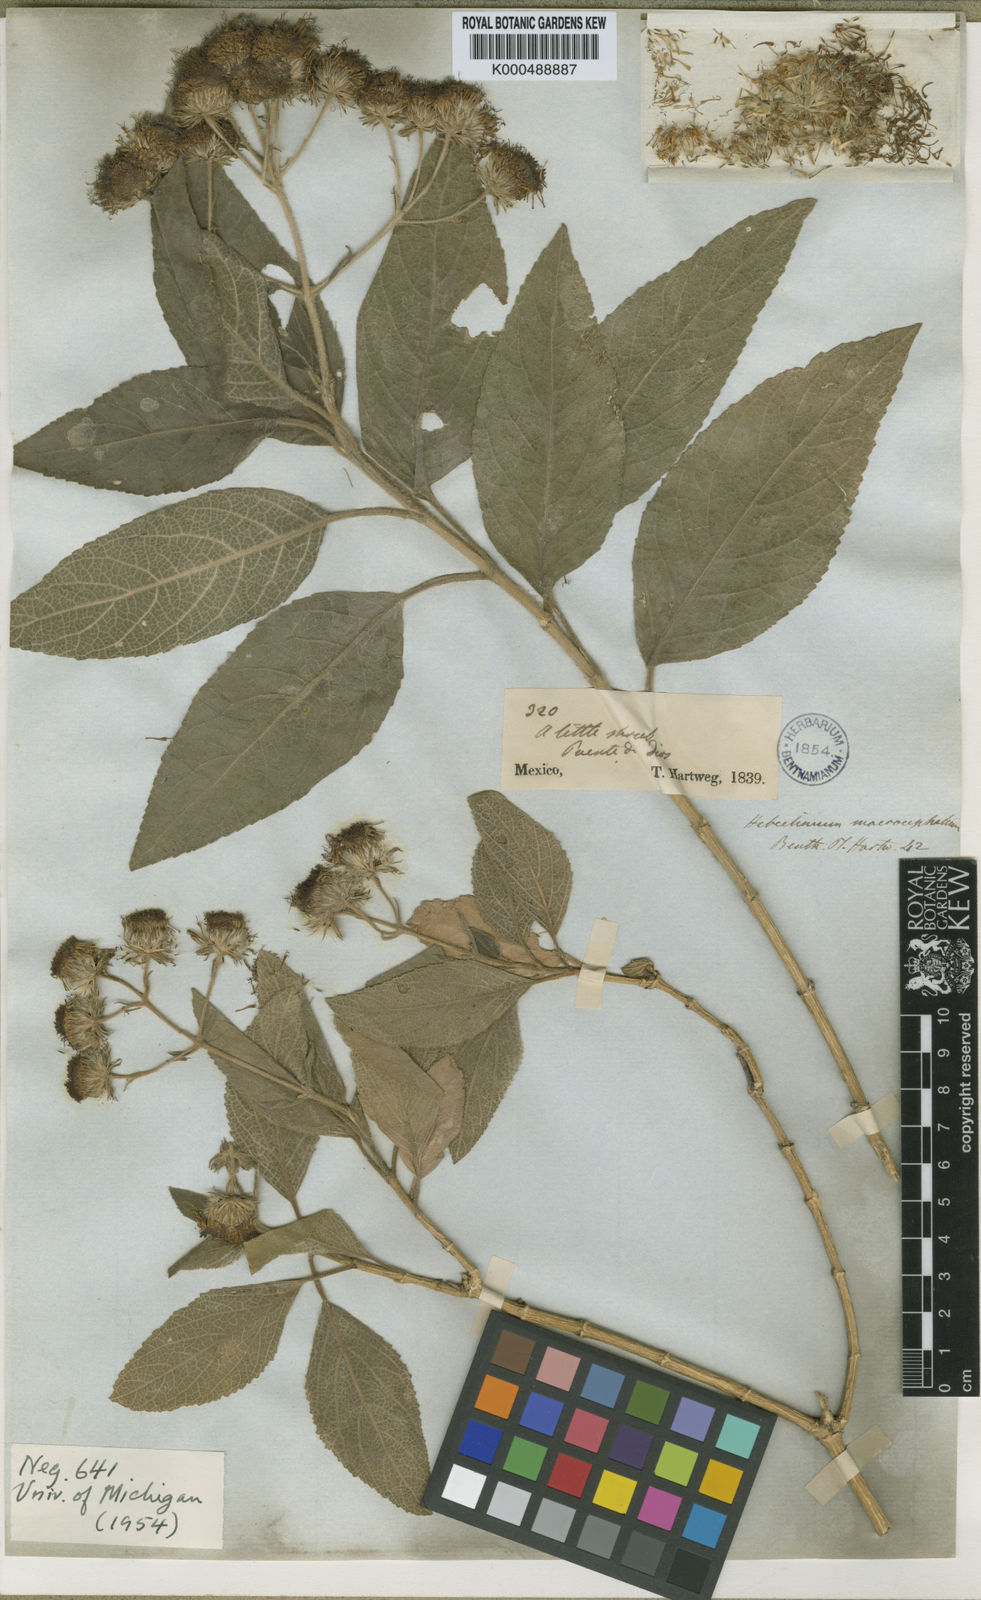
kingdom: Plantae
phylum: Tracheophyta
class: Magnoliopsida
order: Asterales
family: Asteraceae
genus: Campuloclinium
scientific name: Campuloclinium macrocephalum
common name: Pompomweed
